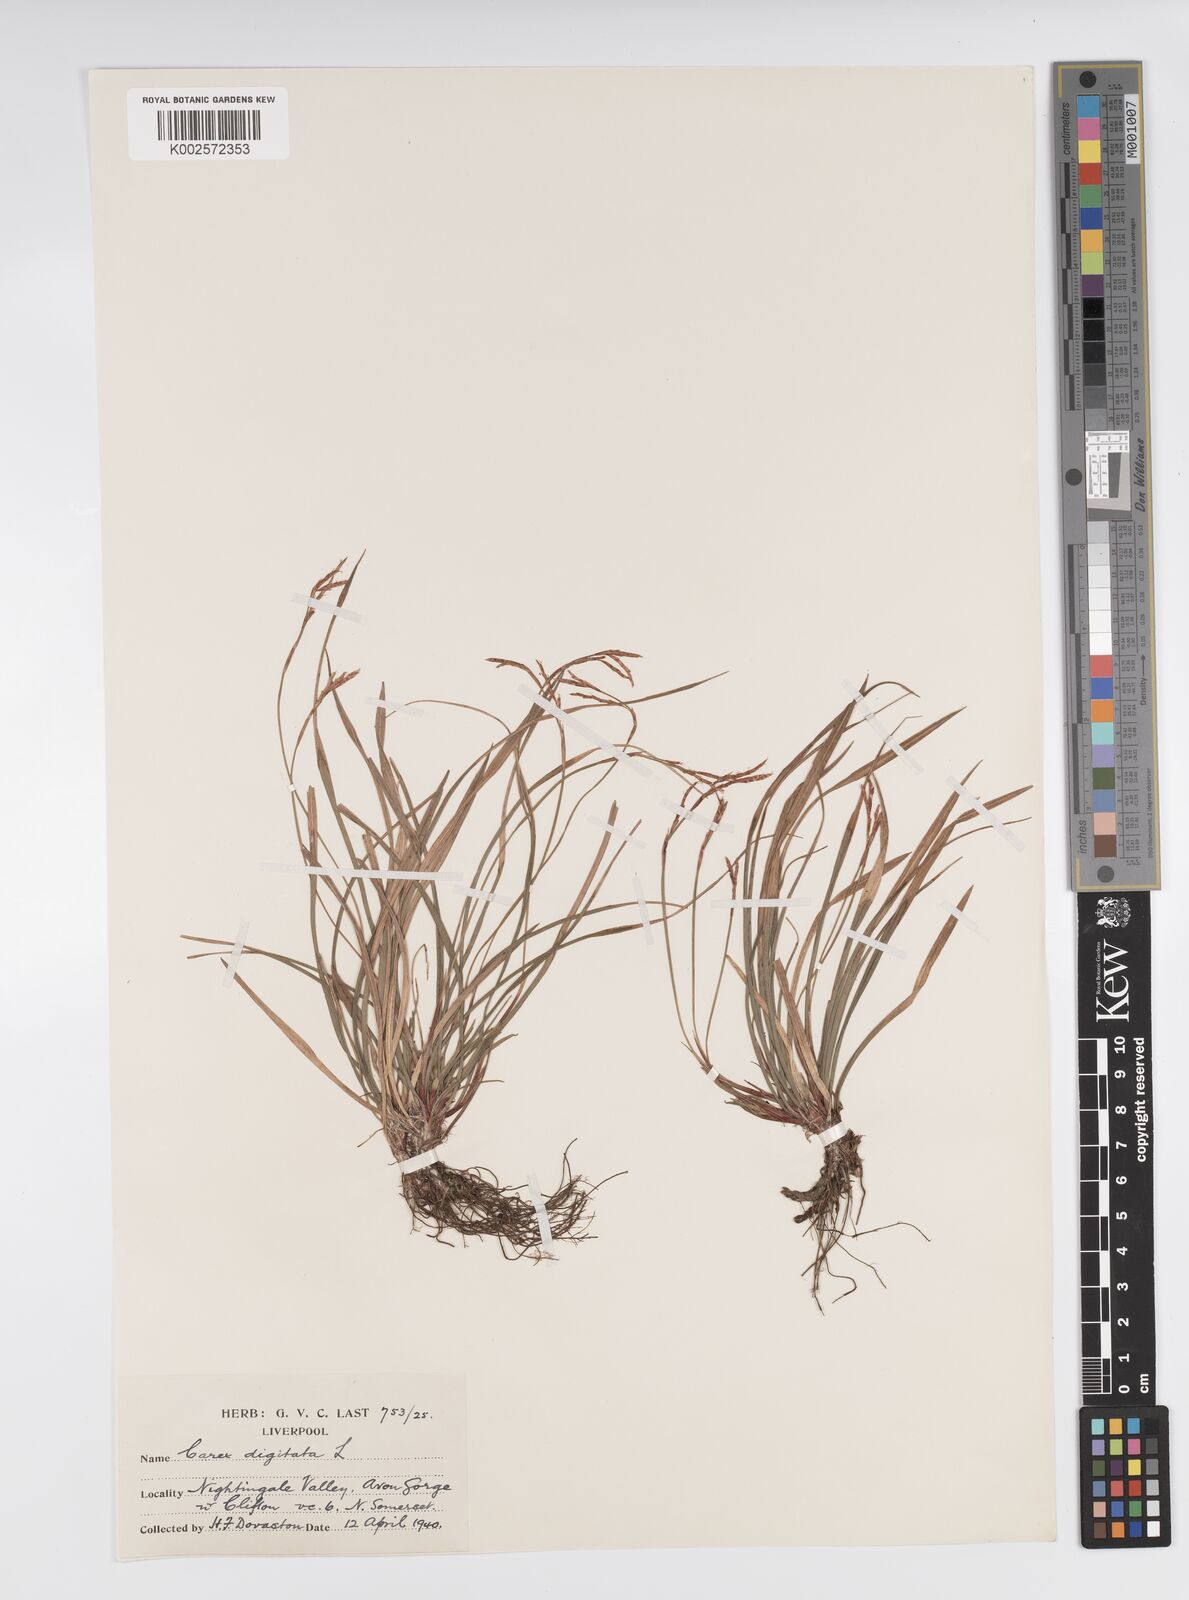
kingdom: Plantae
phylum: Tracheophyta
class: Liliopsida
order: Poales
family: Cyperaceae
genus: Carex
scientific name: Carex digitata
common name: Fingered sedge
